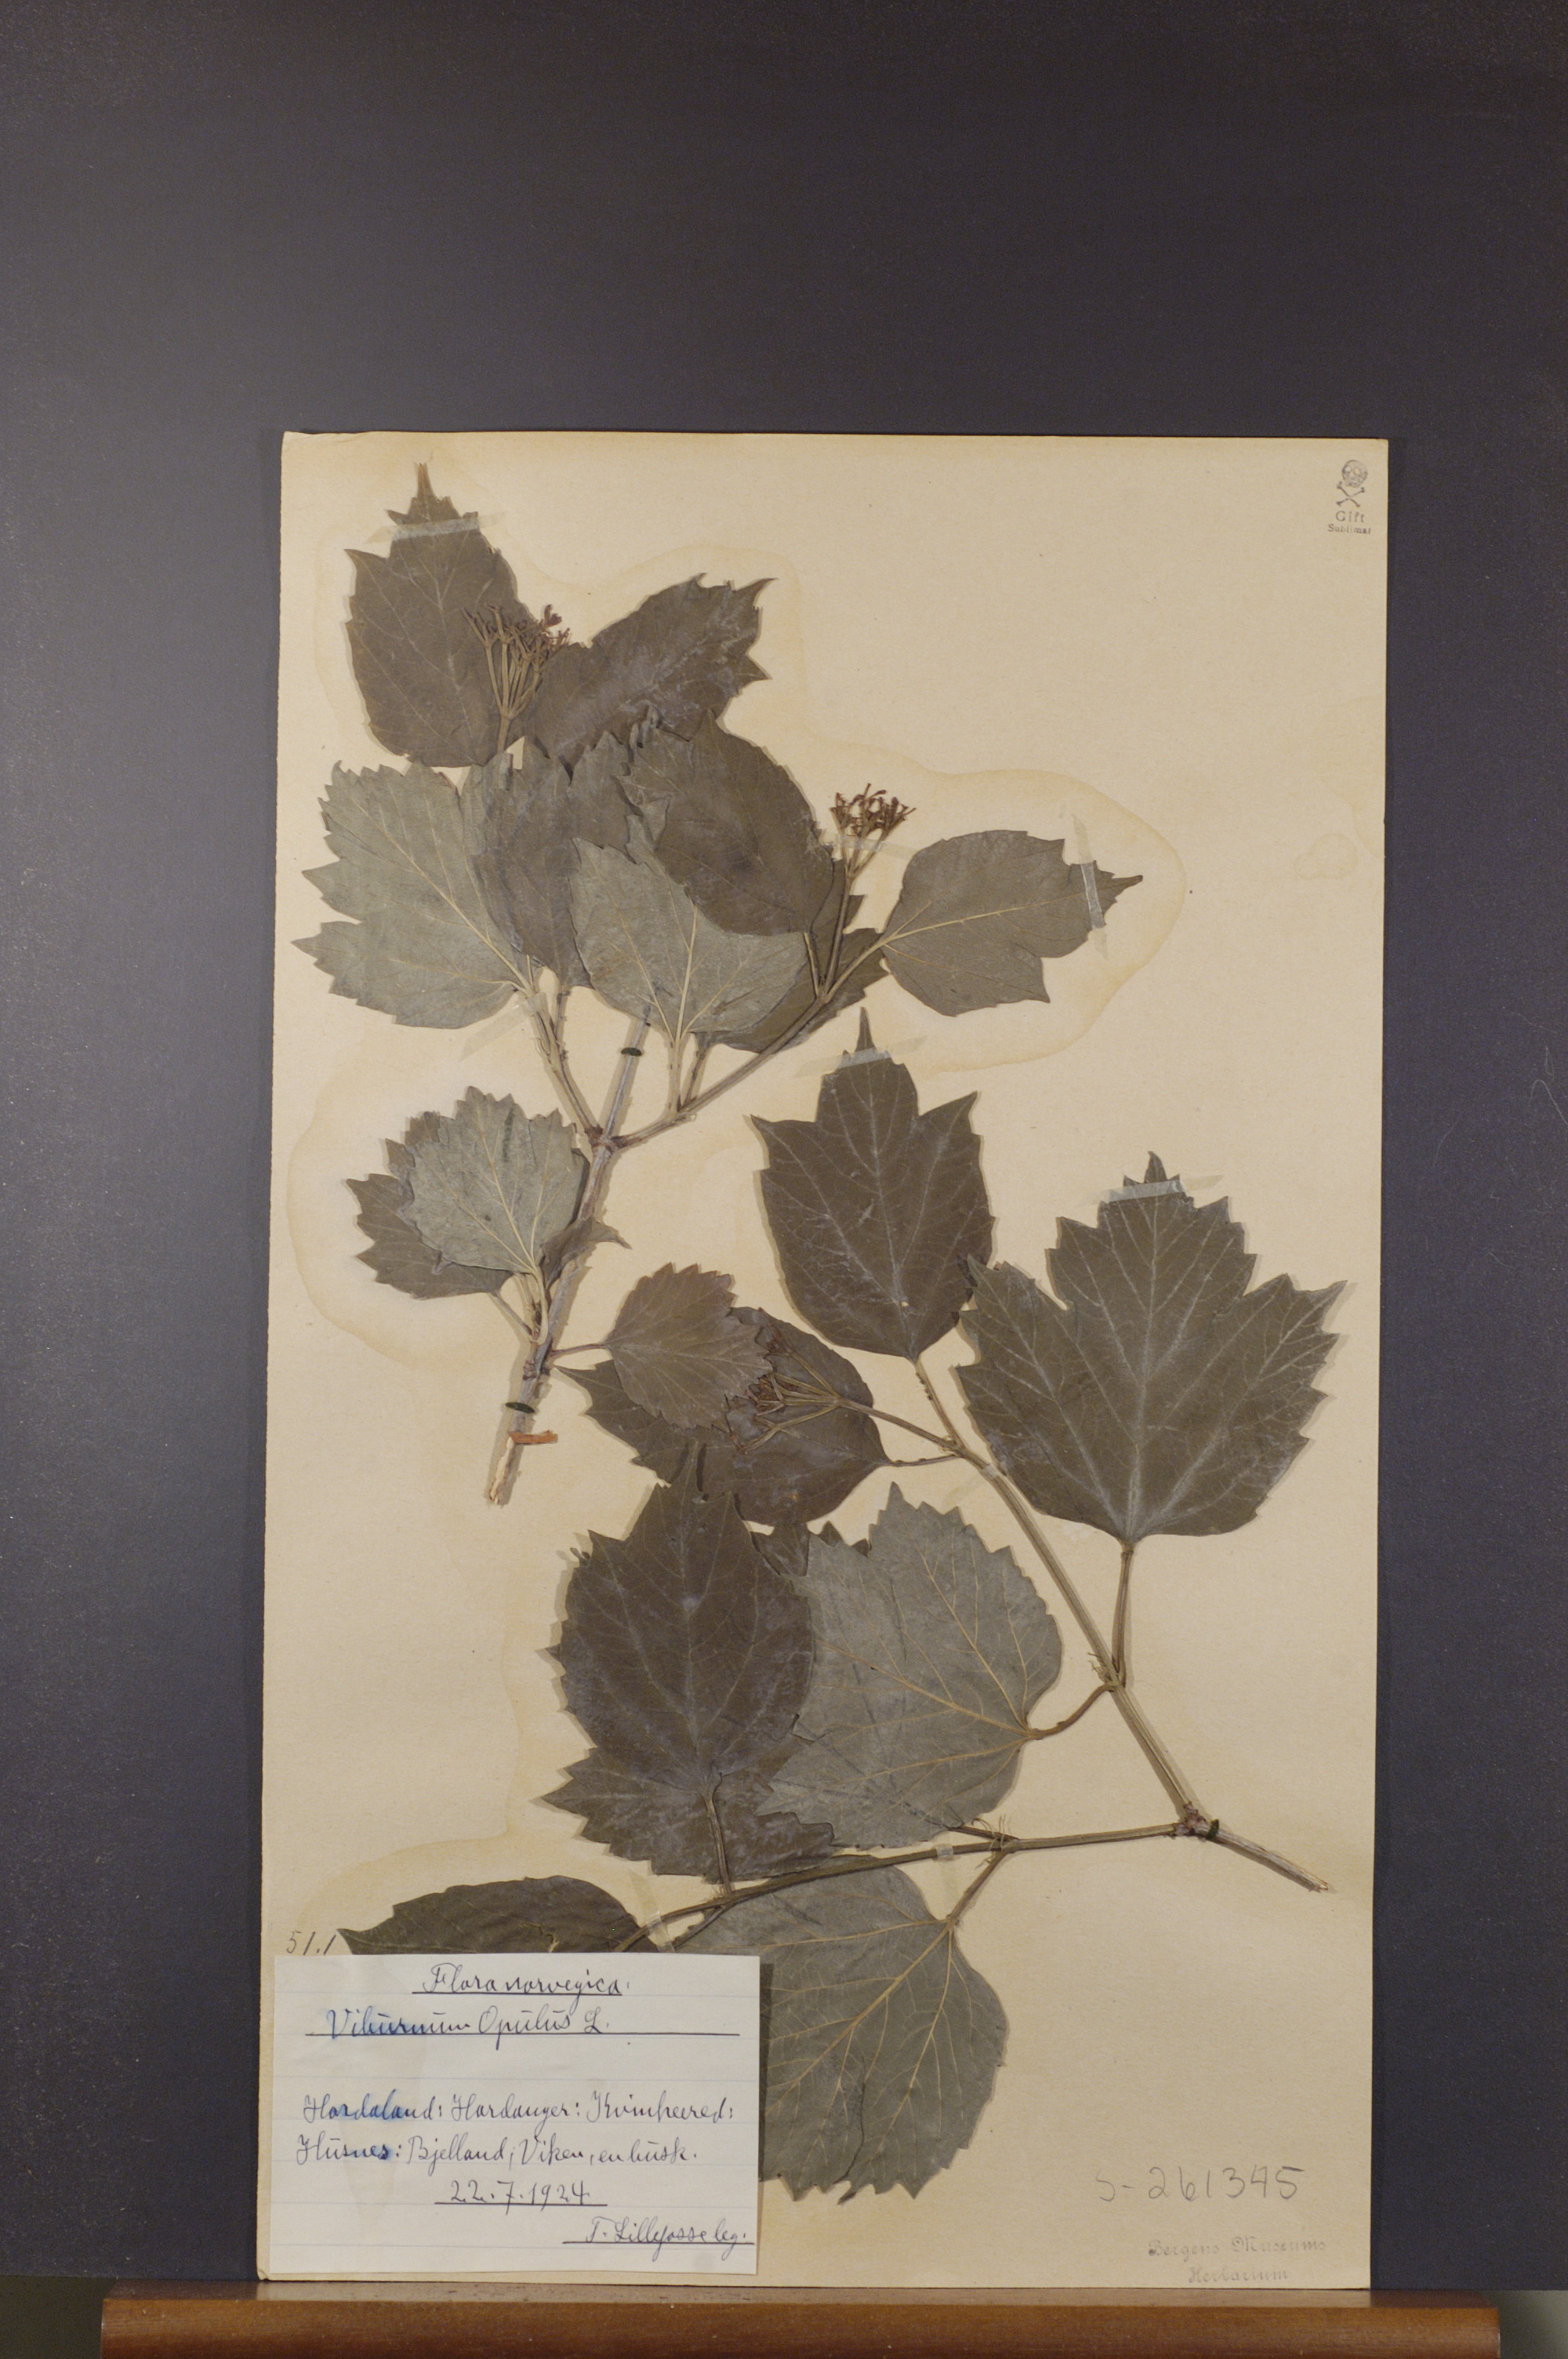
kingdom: Plantae
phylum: Tracheophyta
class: Magnoliopsida
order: Dipsacales
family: Viburnaceae
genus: Viburnum
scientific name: Viburnum opulus
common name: Guelder-rose
